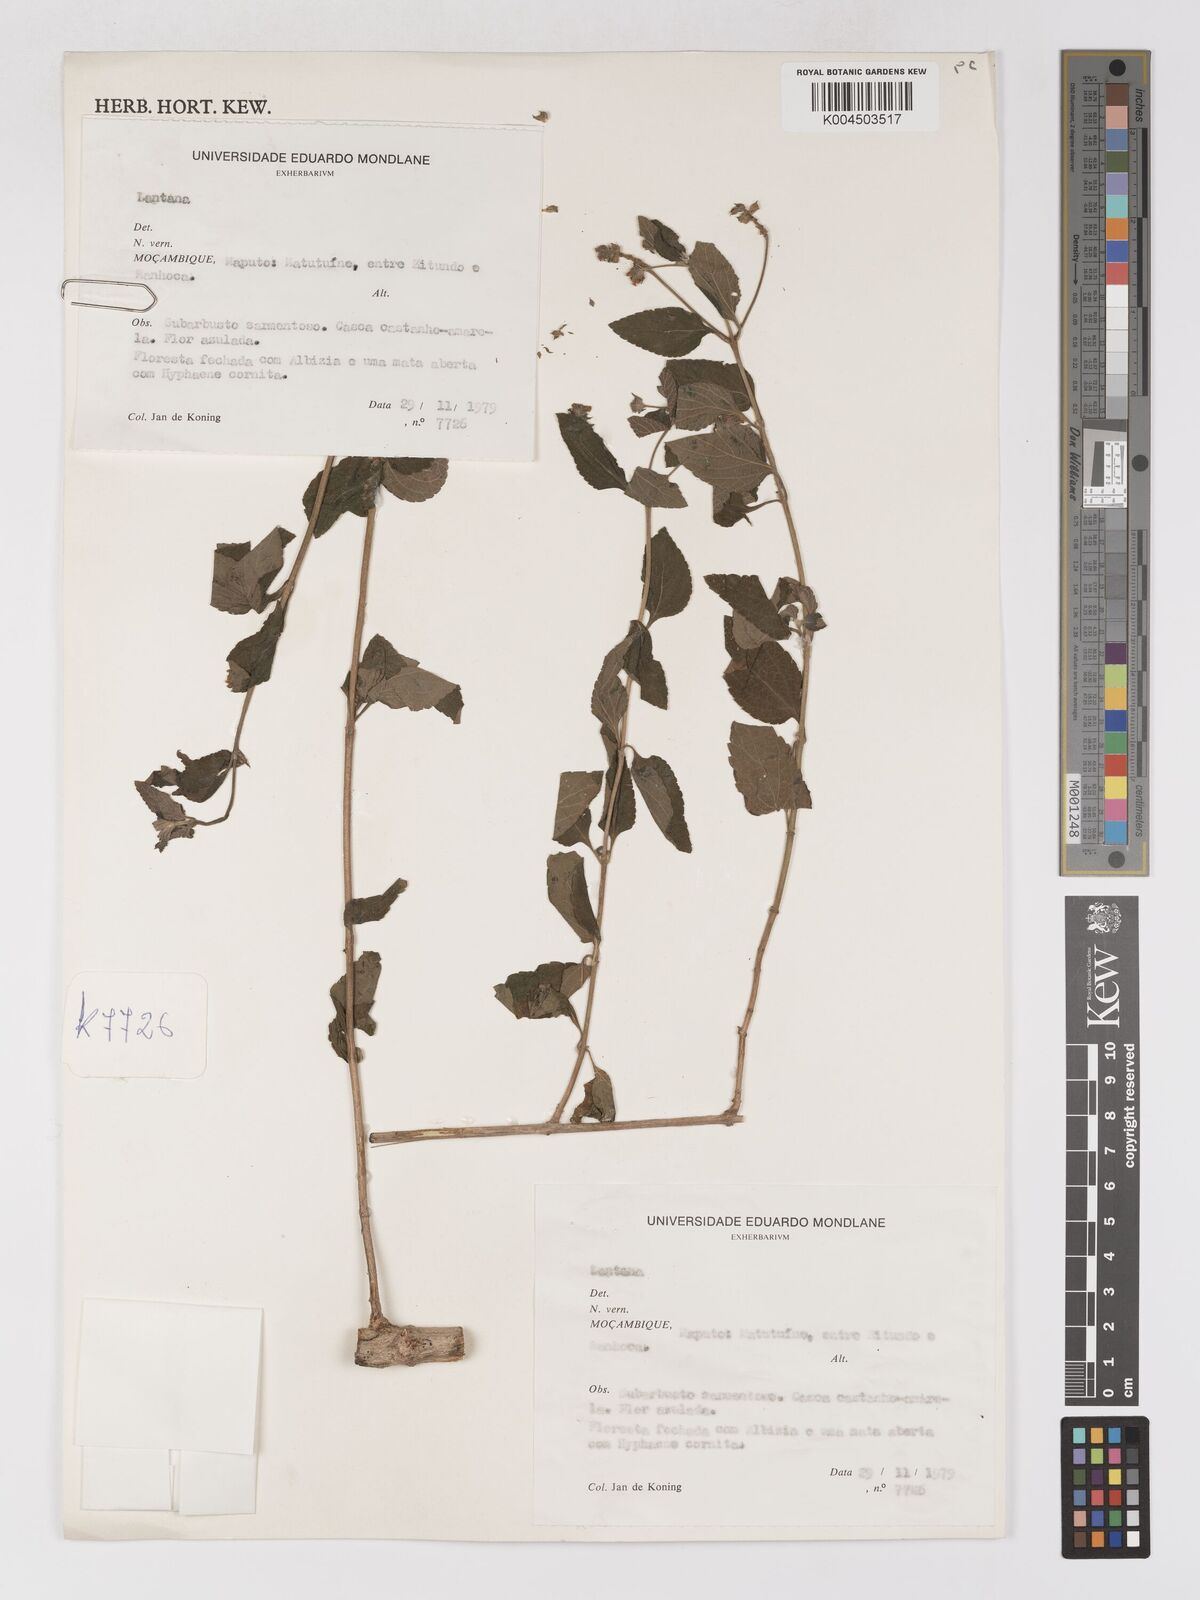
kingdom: Plantae
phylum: Tracheophyta
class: Magnoliopsida
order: Lamiales
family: Verbenaceae
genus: Lantana
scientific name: Lantana
